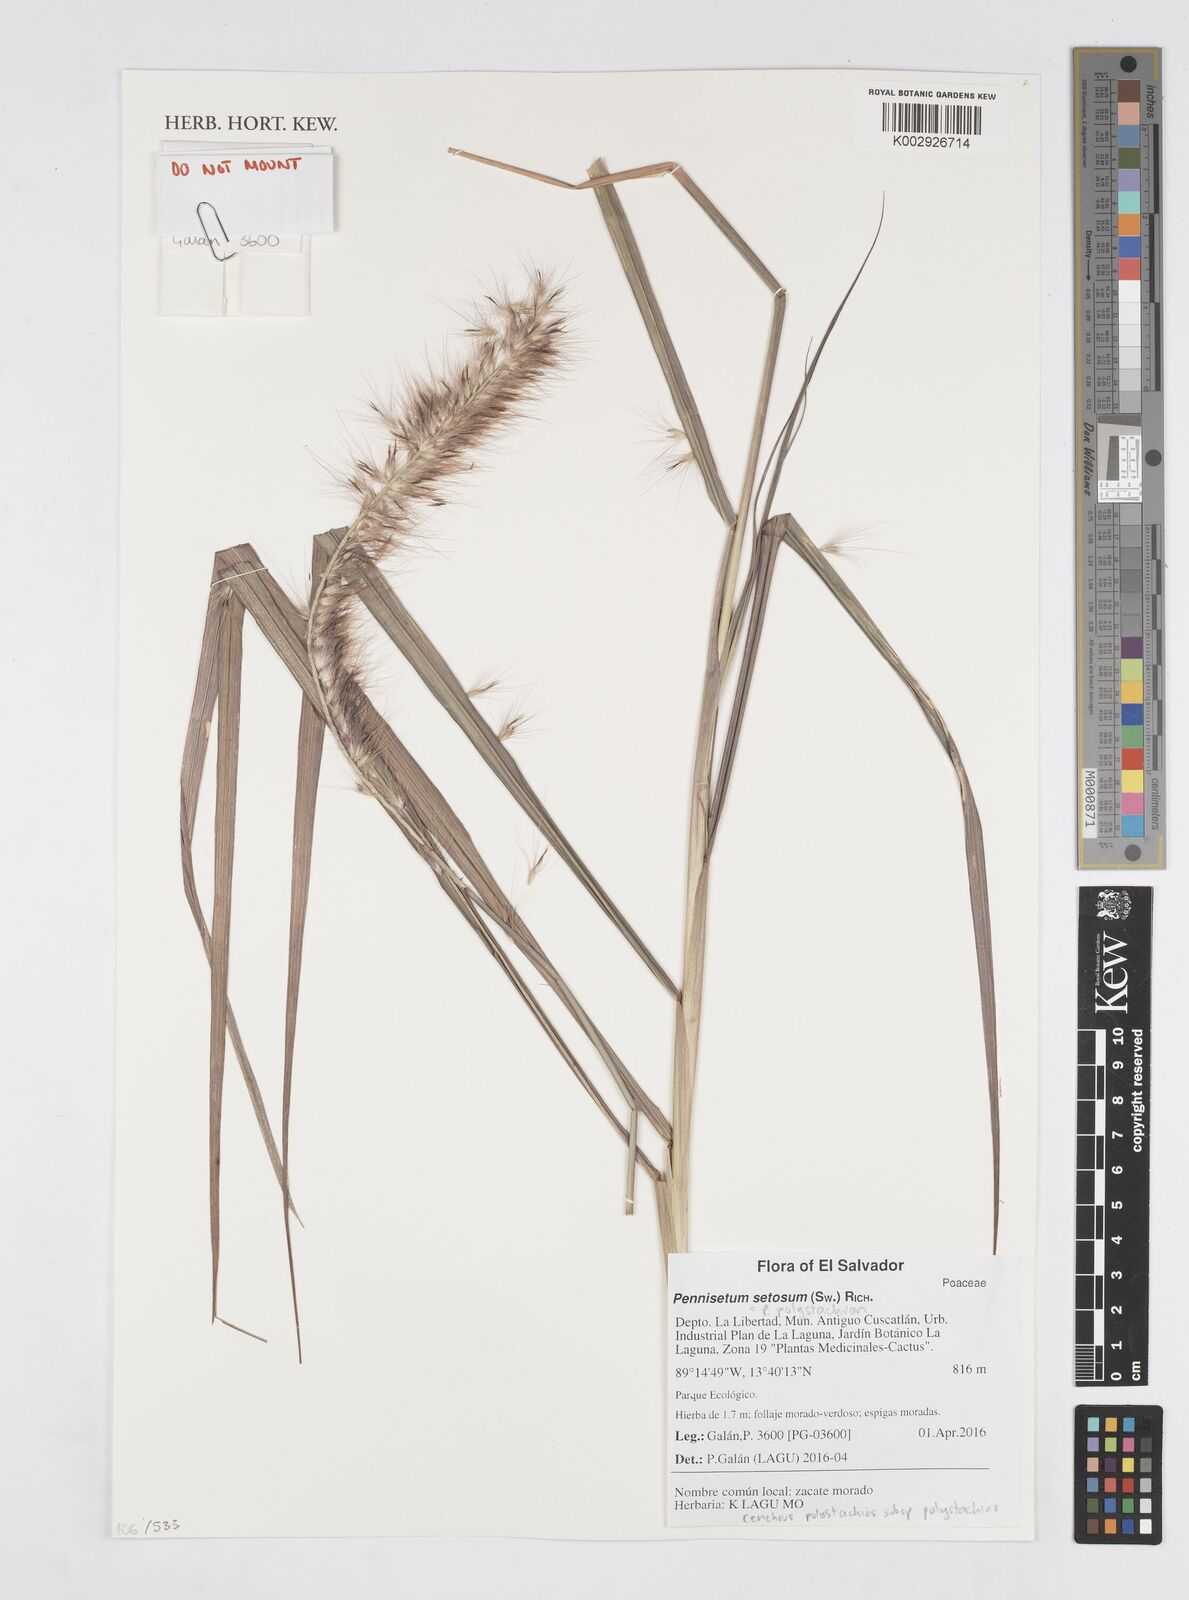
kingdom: Plantae
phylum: Tracheophyta
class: Liliopsida
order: Poales
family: Poaceae
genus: Setaria
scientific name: Setaria parviflora
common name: Knotroot bristle-grass
